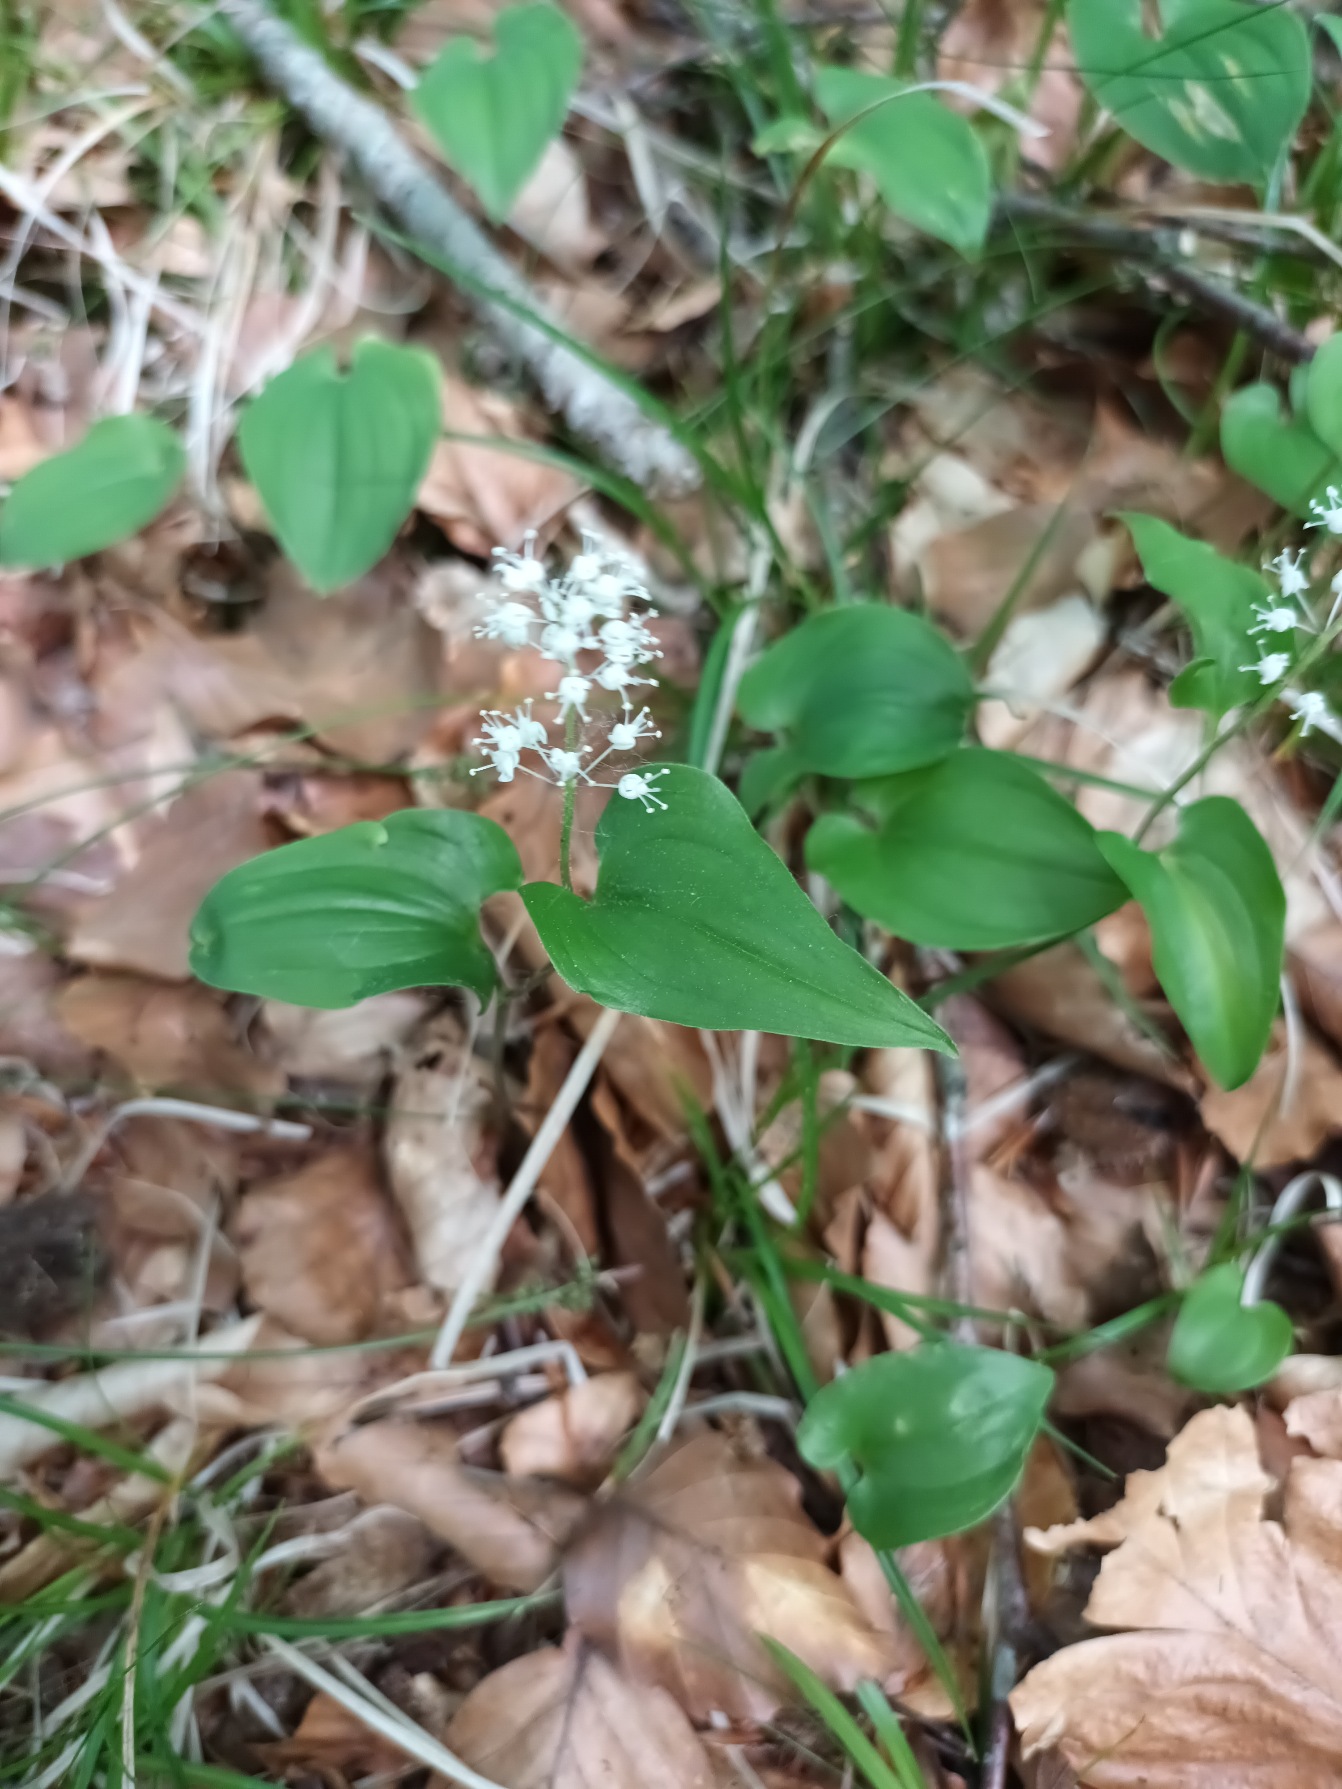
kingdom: Plantae
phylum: Tracheophyta
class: Liliopsida
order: Asparagales
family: Asparagaceae
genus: Maianthemum
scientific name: Maianthemum bifolium
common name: Majblomst
